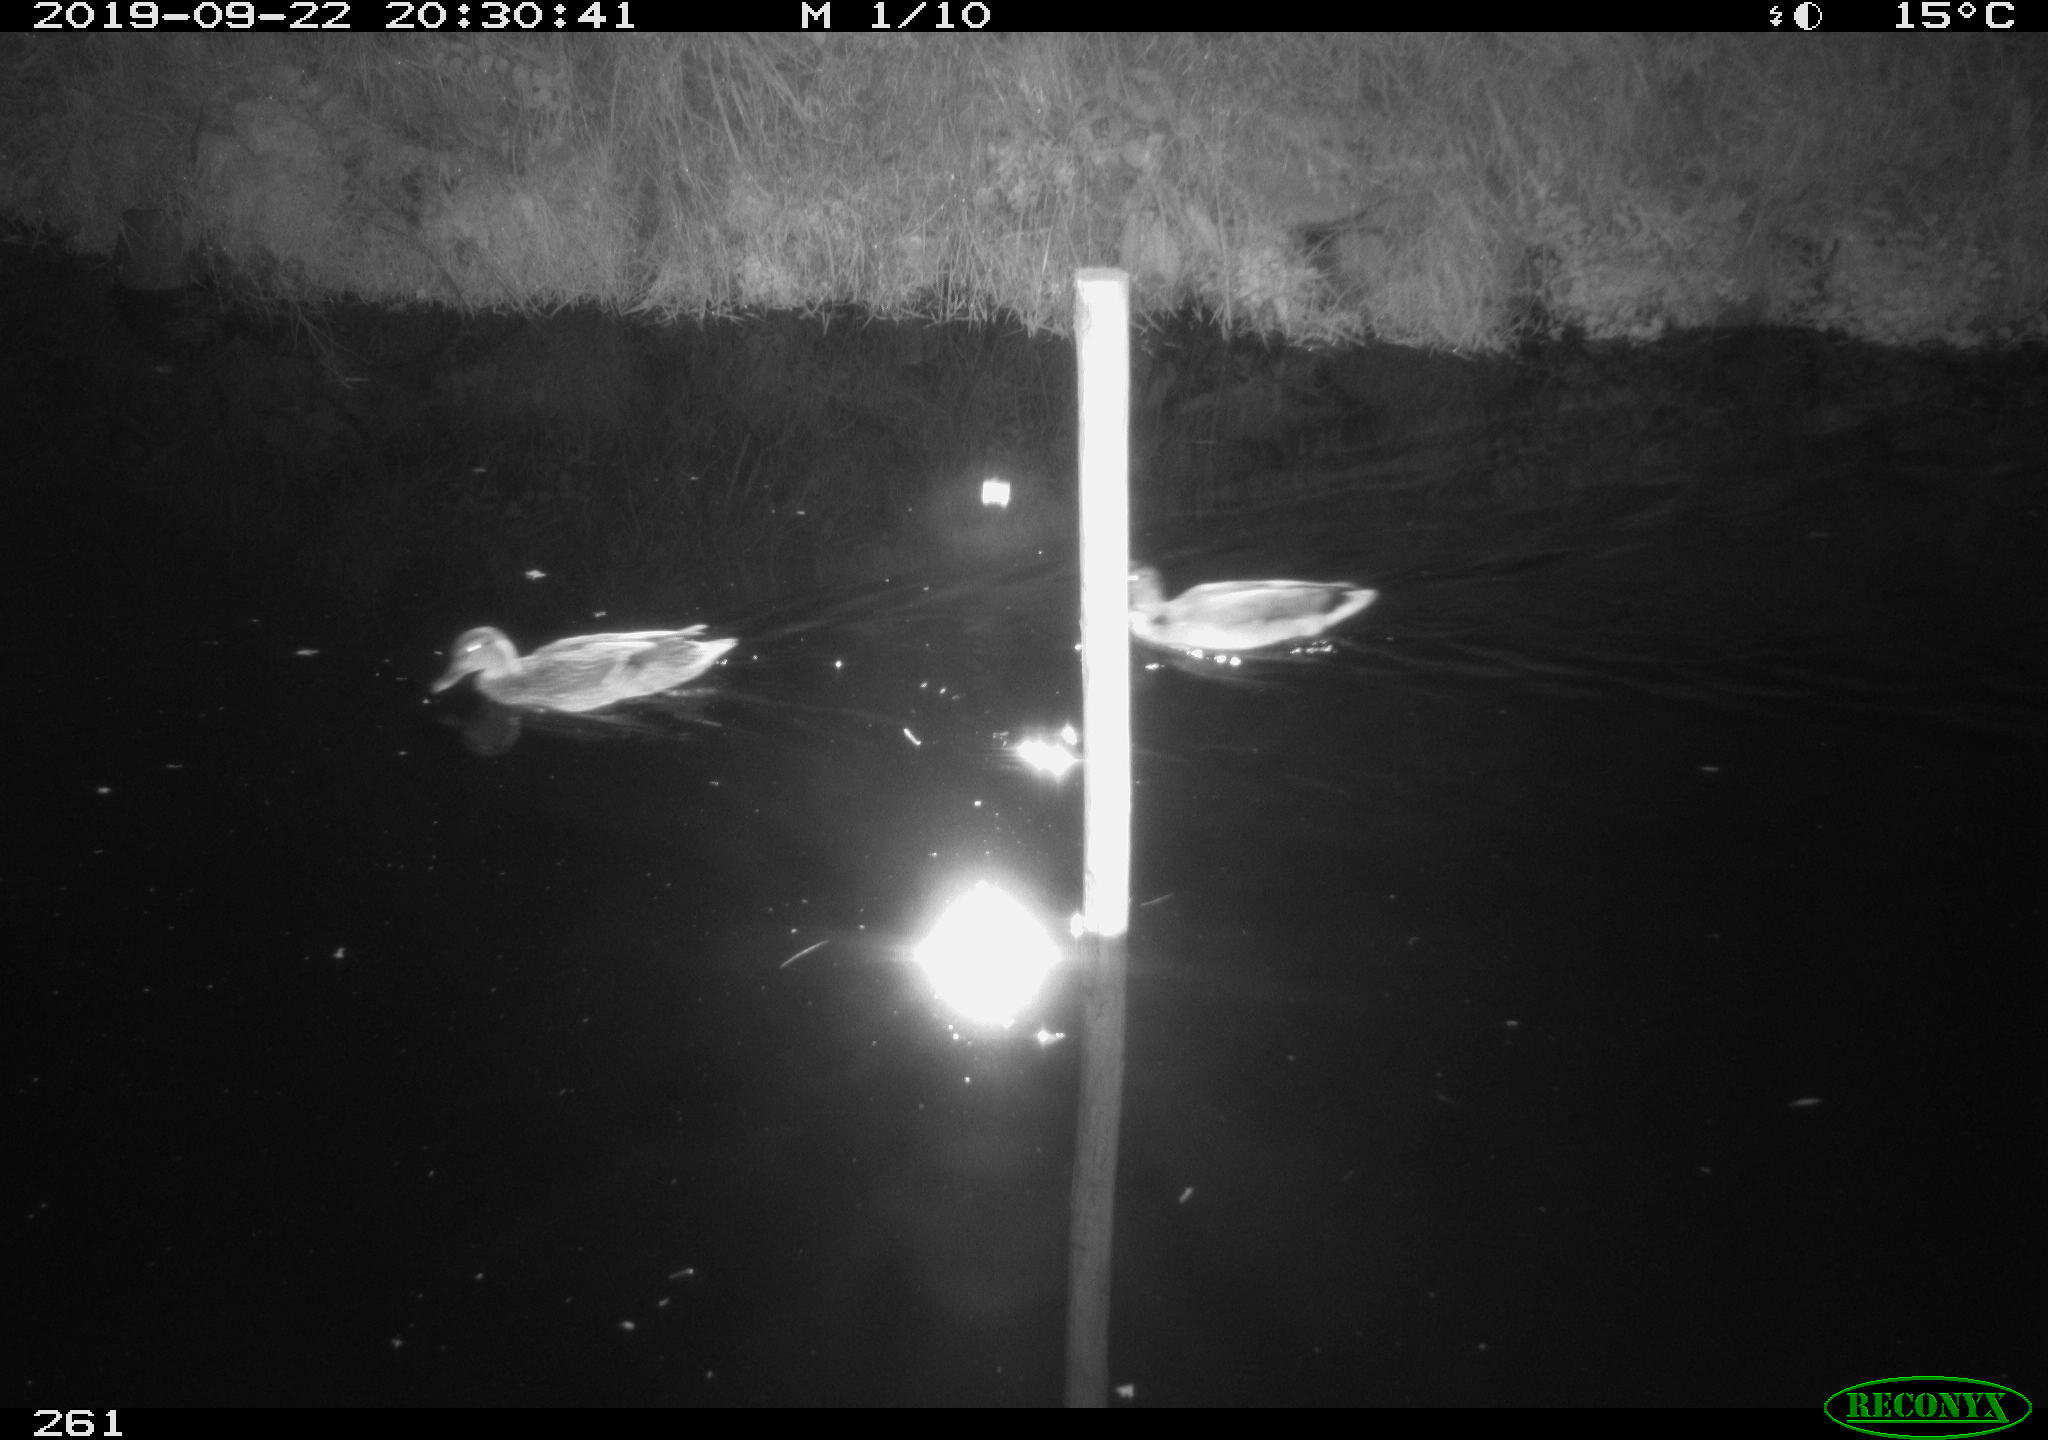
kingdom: Animalia
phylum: Chordata
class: Aves
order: Anseriformes
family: Anatidae
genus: Anas
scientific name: Anas platyrhynchos
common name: Mallard
